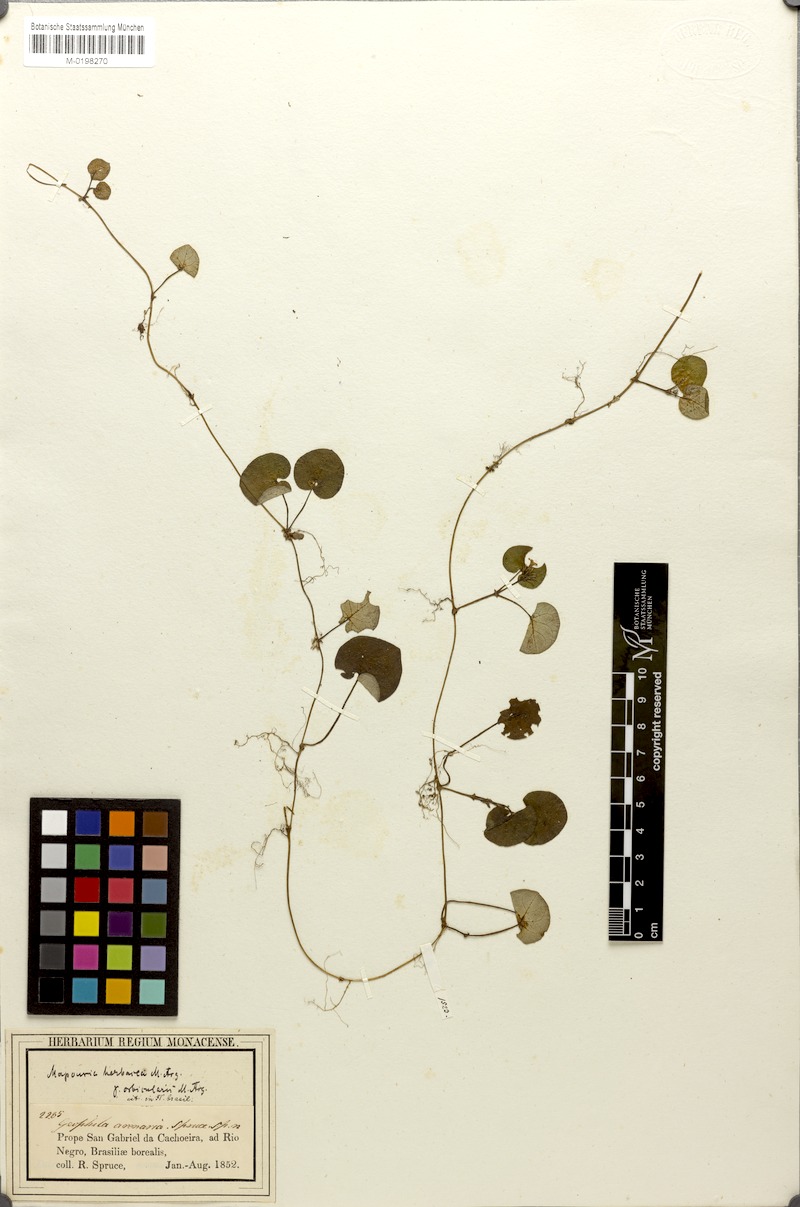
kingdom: Plantae
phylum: Tracheophyta
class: Magnoliopsida
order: Gentianales
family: Rubiaceae
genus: Geophila
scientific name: Geophila orbicularis
